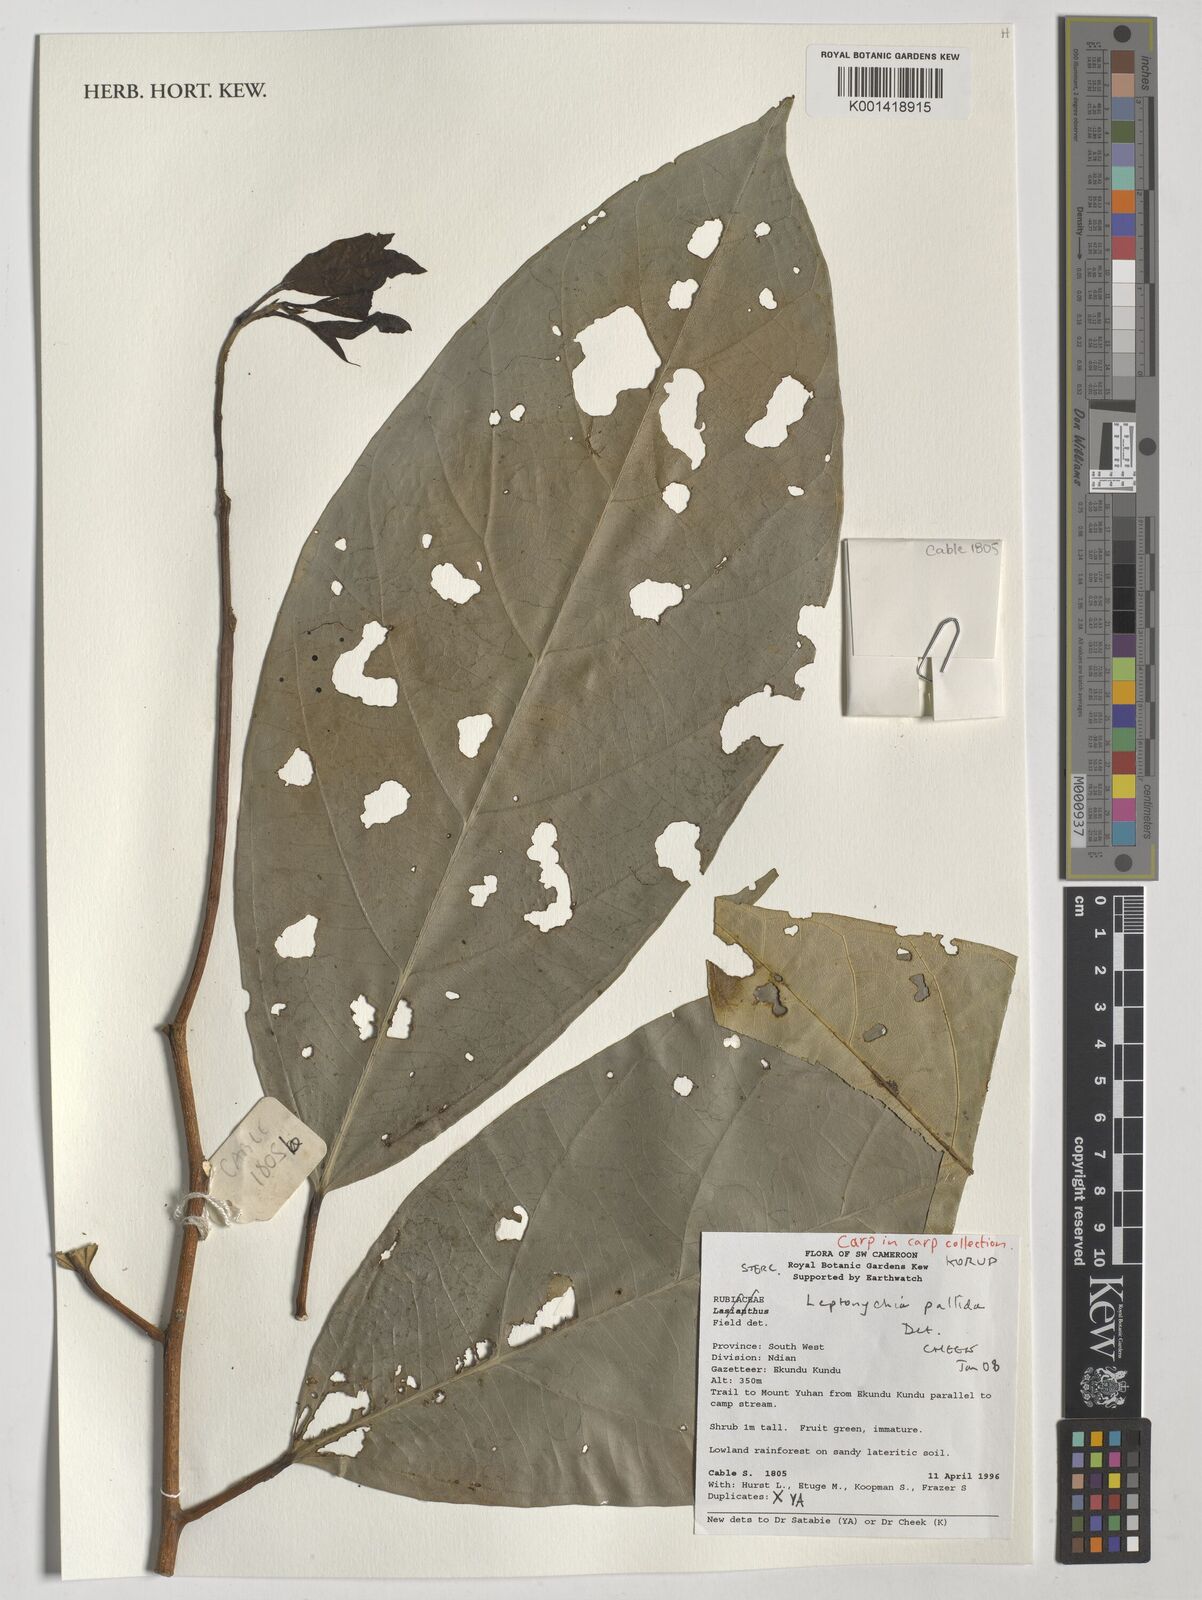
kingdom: Plantae
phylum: Tracheophyta
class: Magnoliopsida
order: Malvales
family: Malvaceae
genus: Leptonychia
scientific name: Leptonychia pallida
